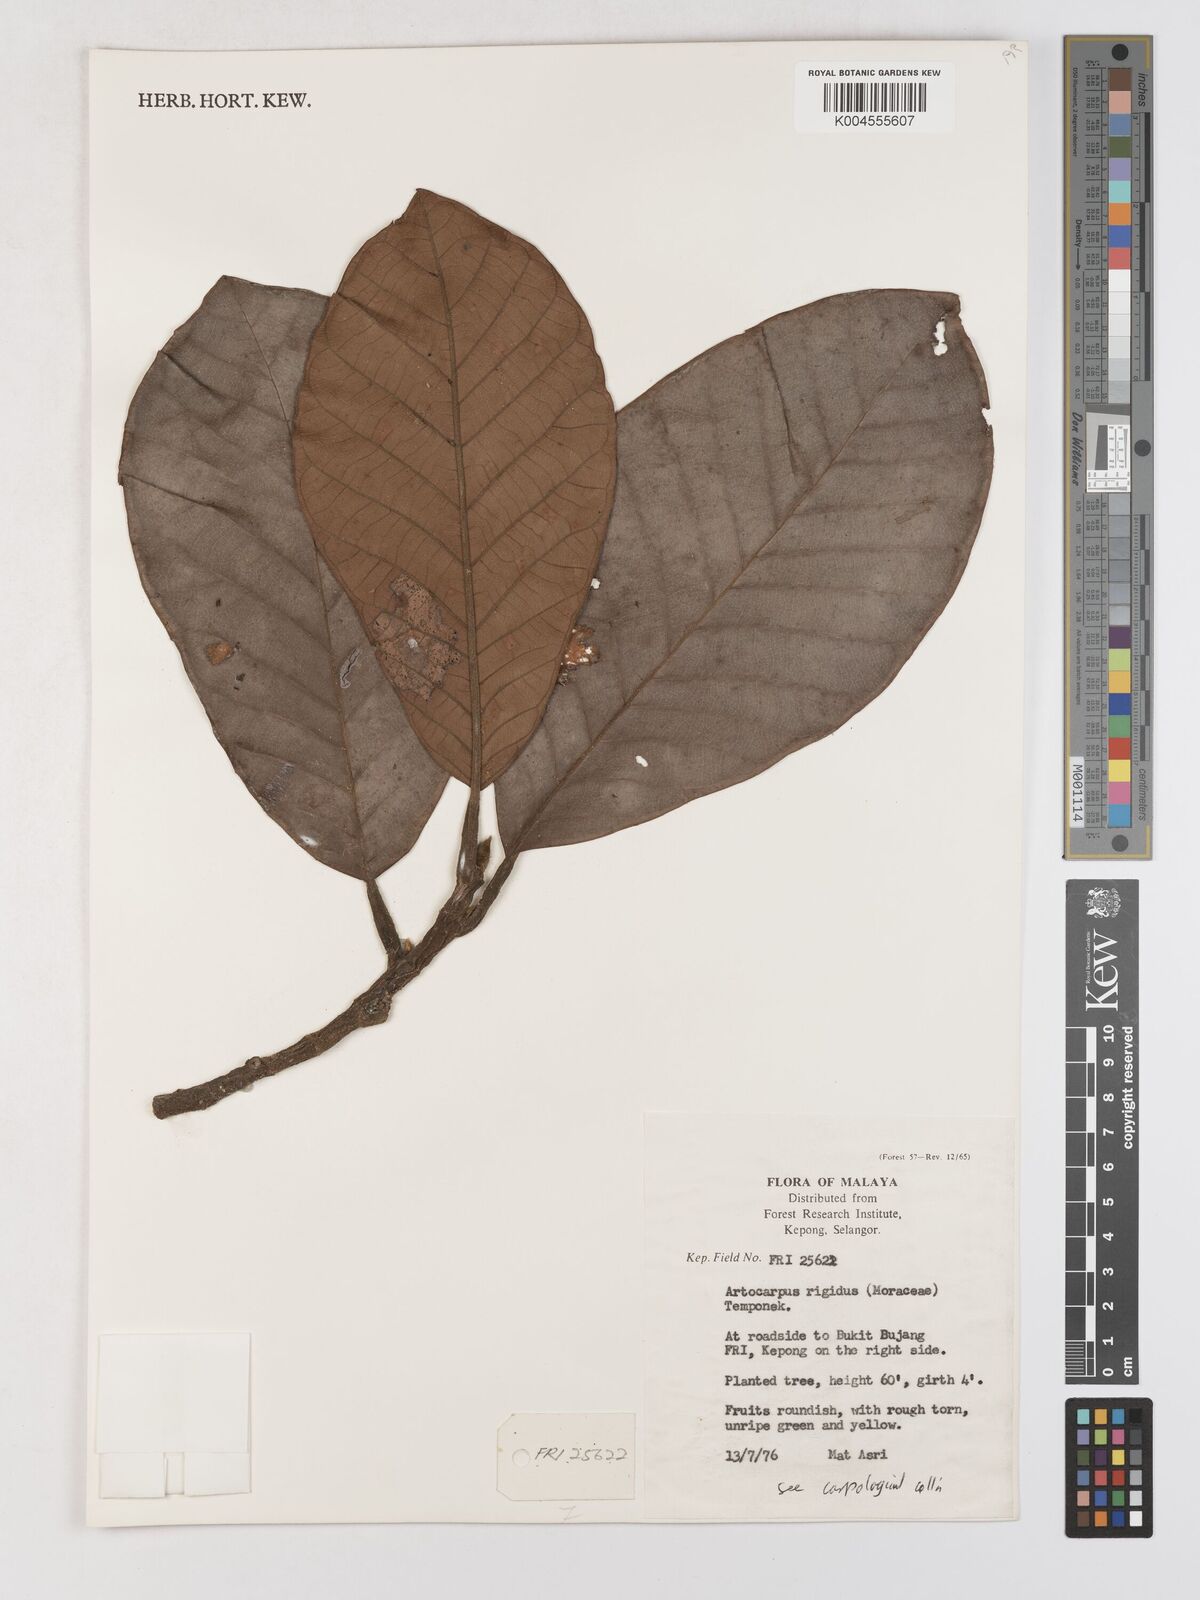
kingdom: Plantae
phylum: Tracheophyta
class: Magnoliopsida
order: Rosales
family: Moraceae
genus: Artocarpus
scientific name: Artocarpus
